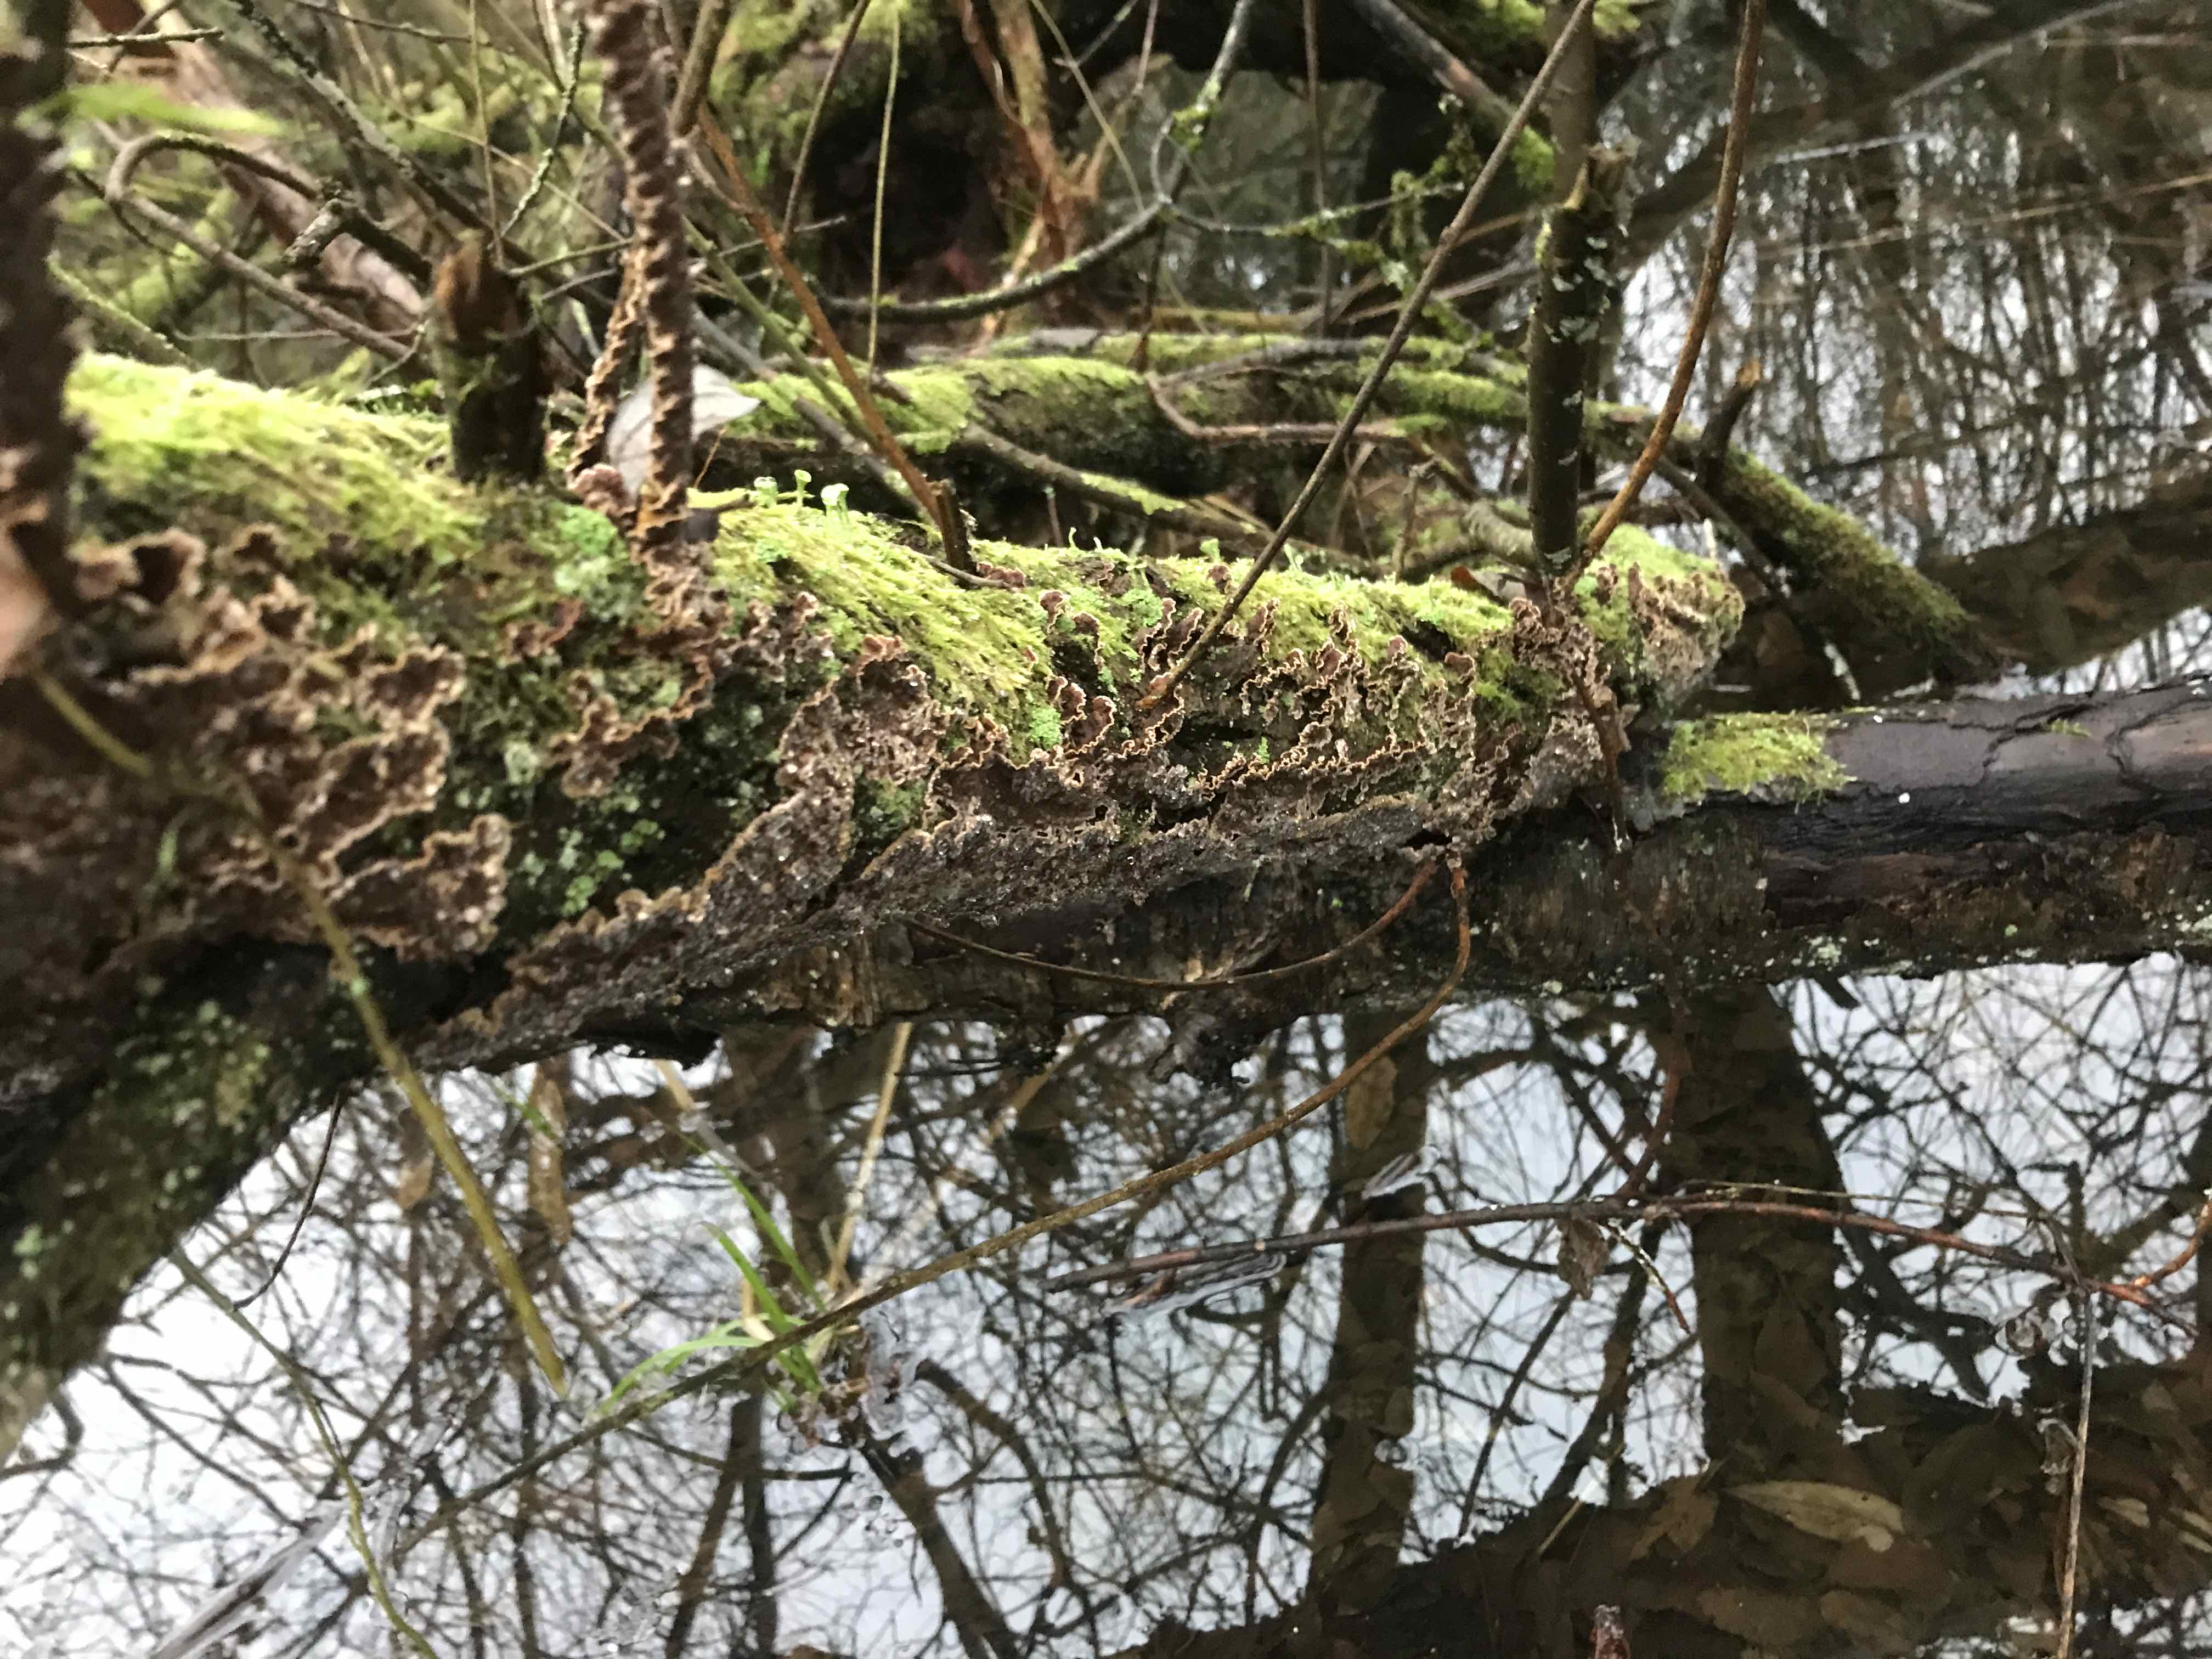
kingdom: Fungi
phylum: Basidiomycota
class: Agaricomycetes
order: Hymenochaetales
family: Hymenochaetaceae
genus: Hydnoporia
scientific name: Hydnoporia tabacina
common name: tobaksbrun ruslædersvamp
